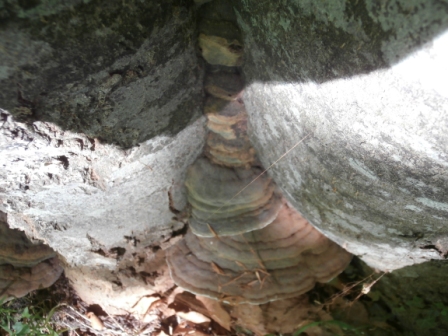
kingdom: Fungi
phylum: Basidiomycota
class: Agaricomycetes
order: Polyporales
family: Polyporaceae
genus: Ganoderma
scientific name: Ganoderma pfeifferi
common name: kobberrød lakporesvamp
